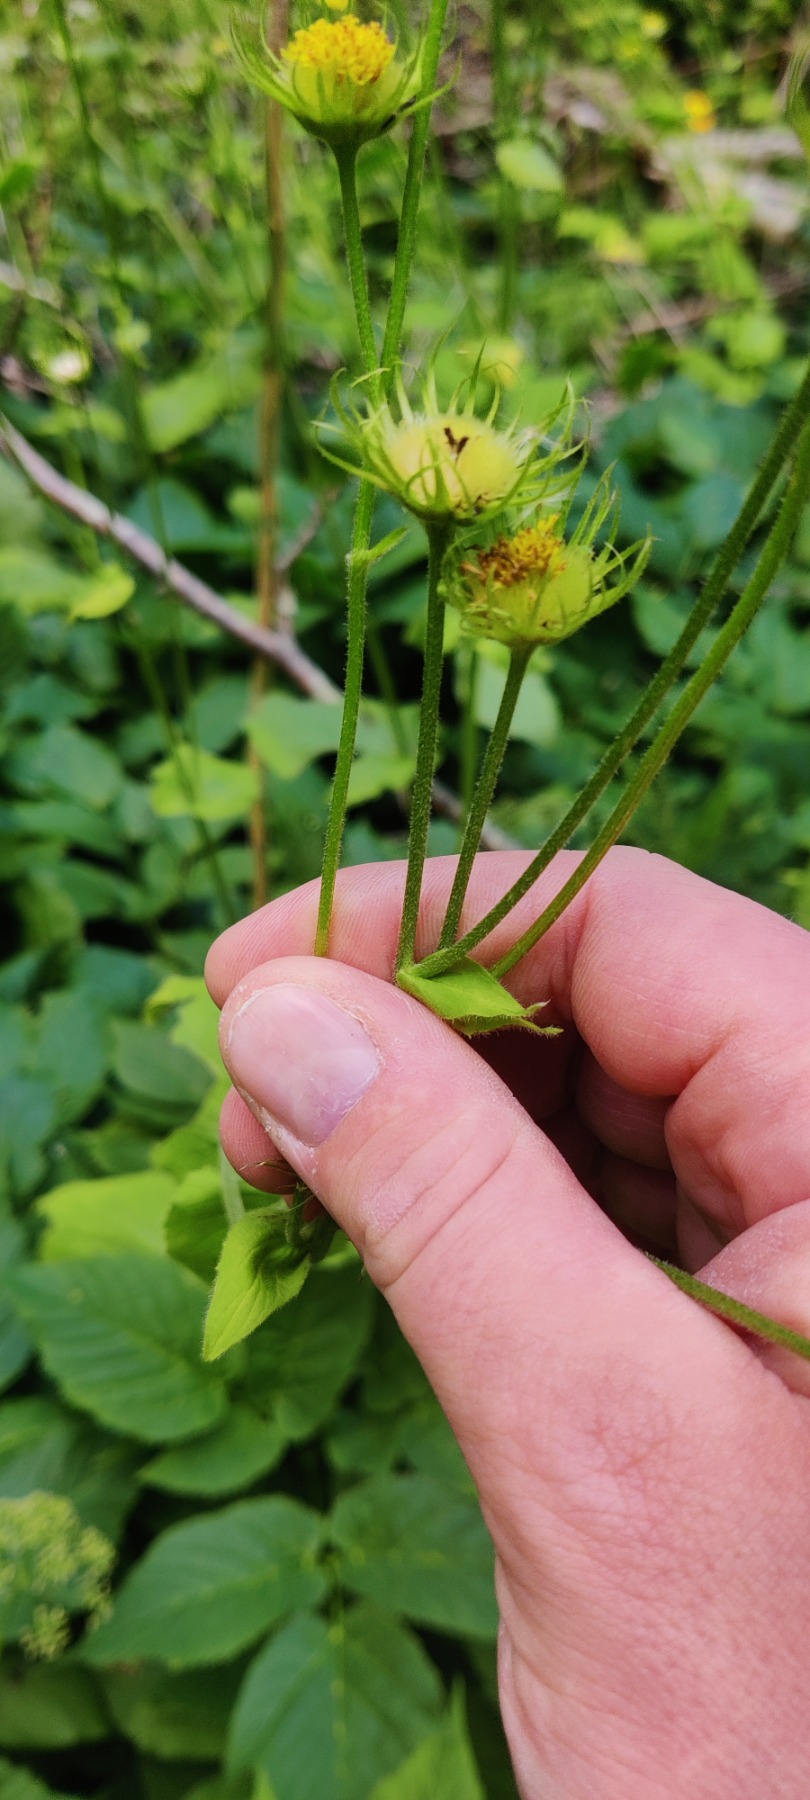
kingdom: Plantae
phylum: Tracheophyta
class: Magnoliopsida
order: Asterales
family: Asteraceae
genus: Doronicum
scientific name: Doronicum
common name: Gemserodslægten
